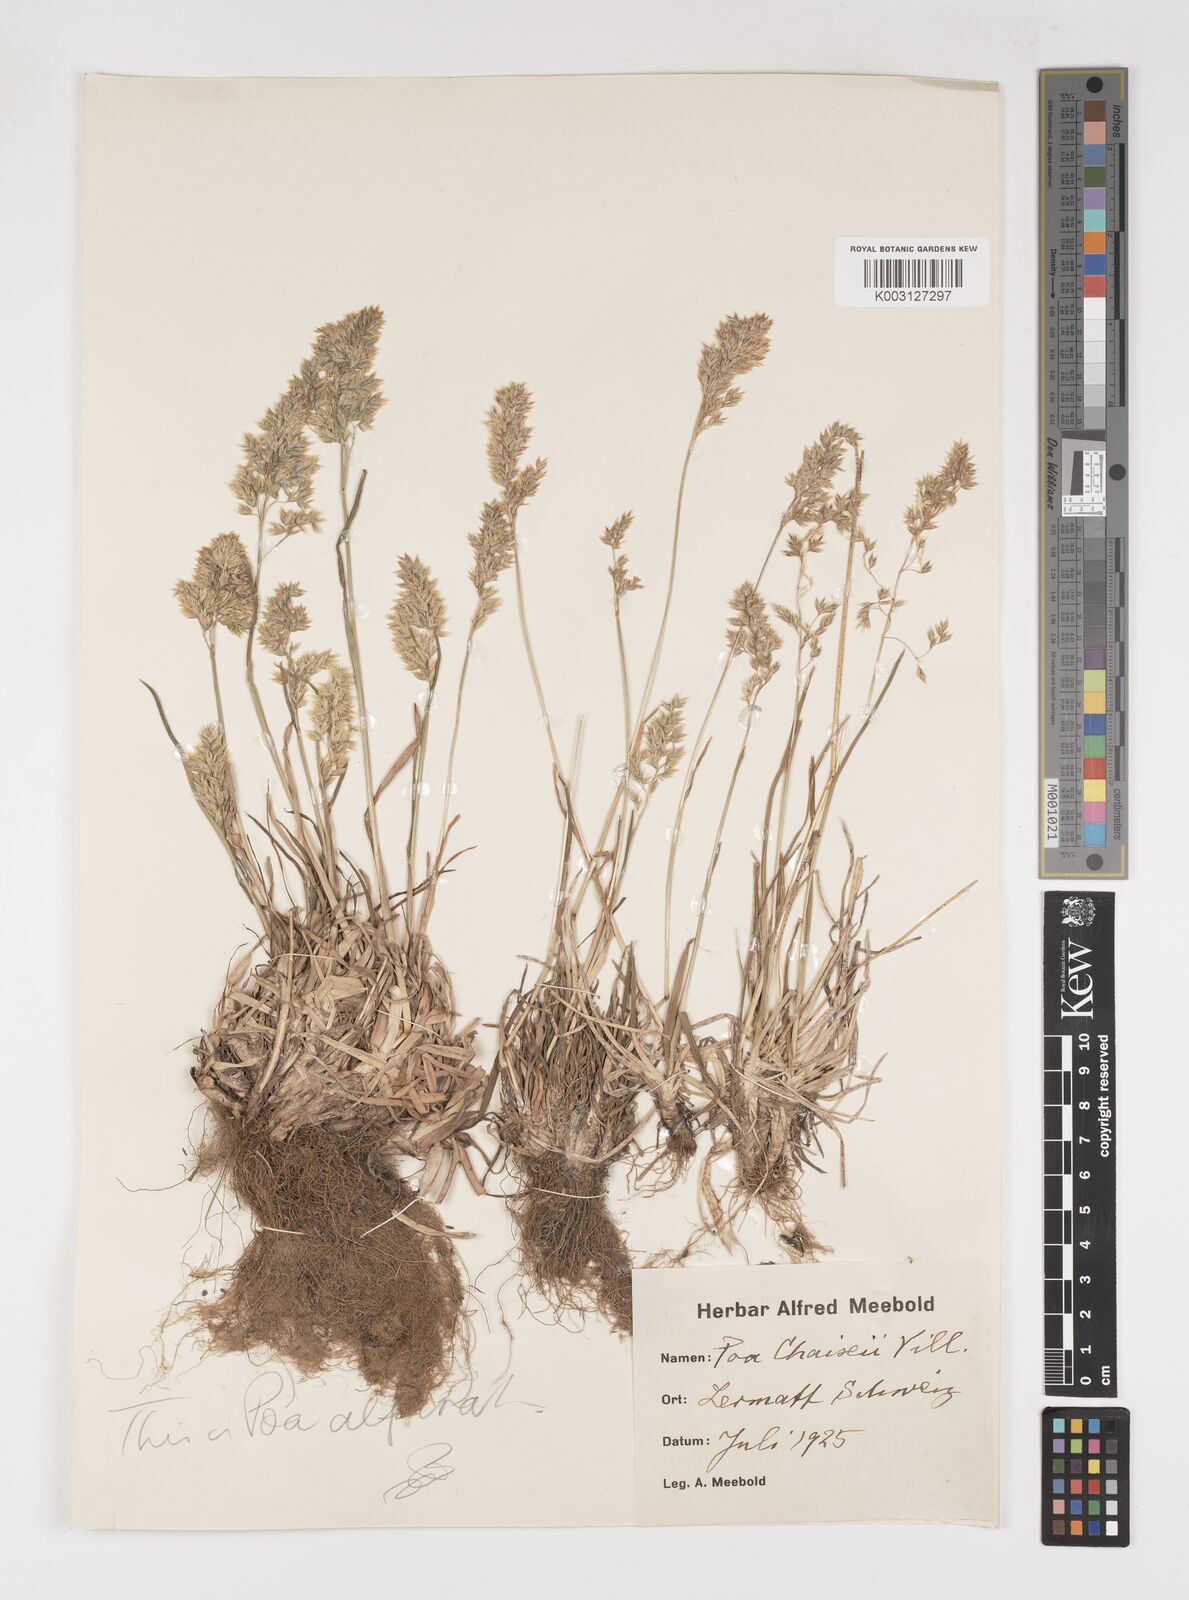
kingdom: Plantae
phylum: Tracheophyta
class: Liliopsida
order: Poales
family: Poaceae
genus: Poa
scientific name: Poa alpina
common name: Alpine bluegrass
